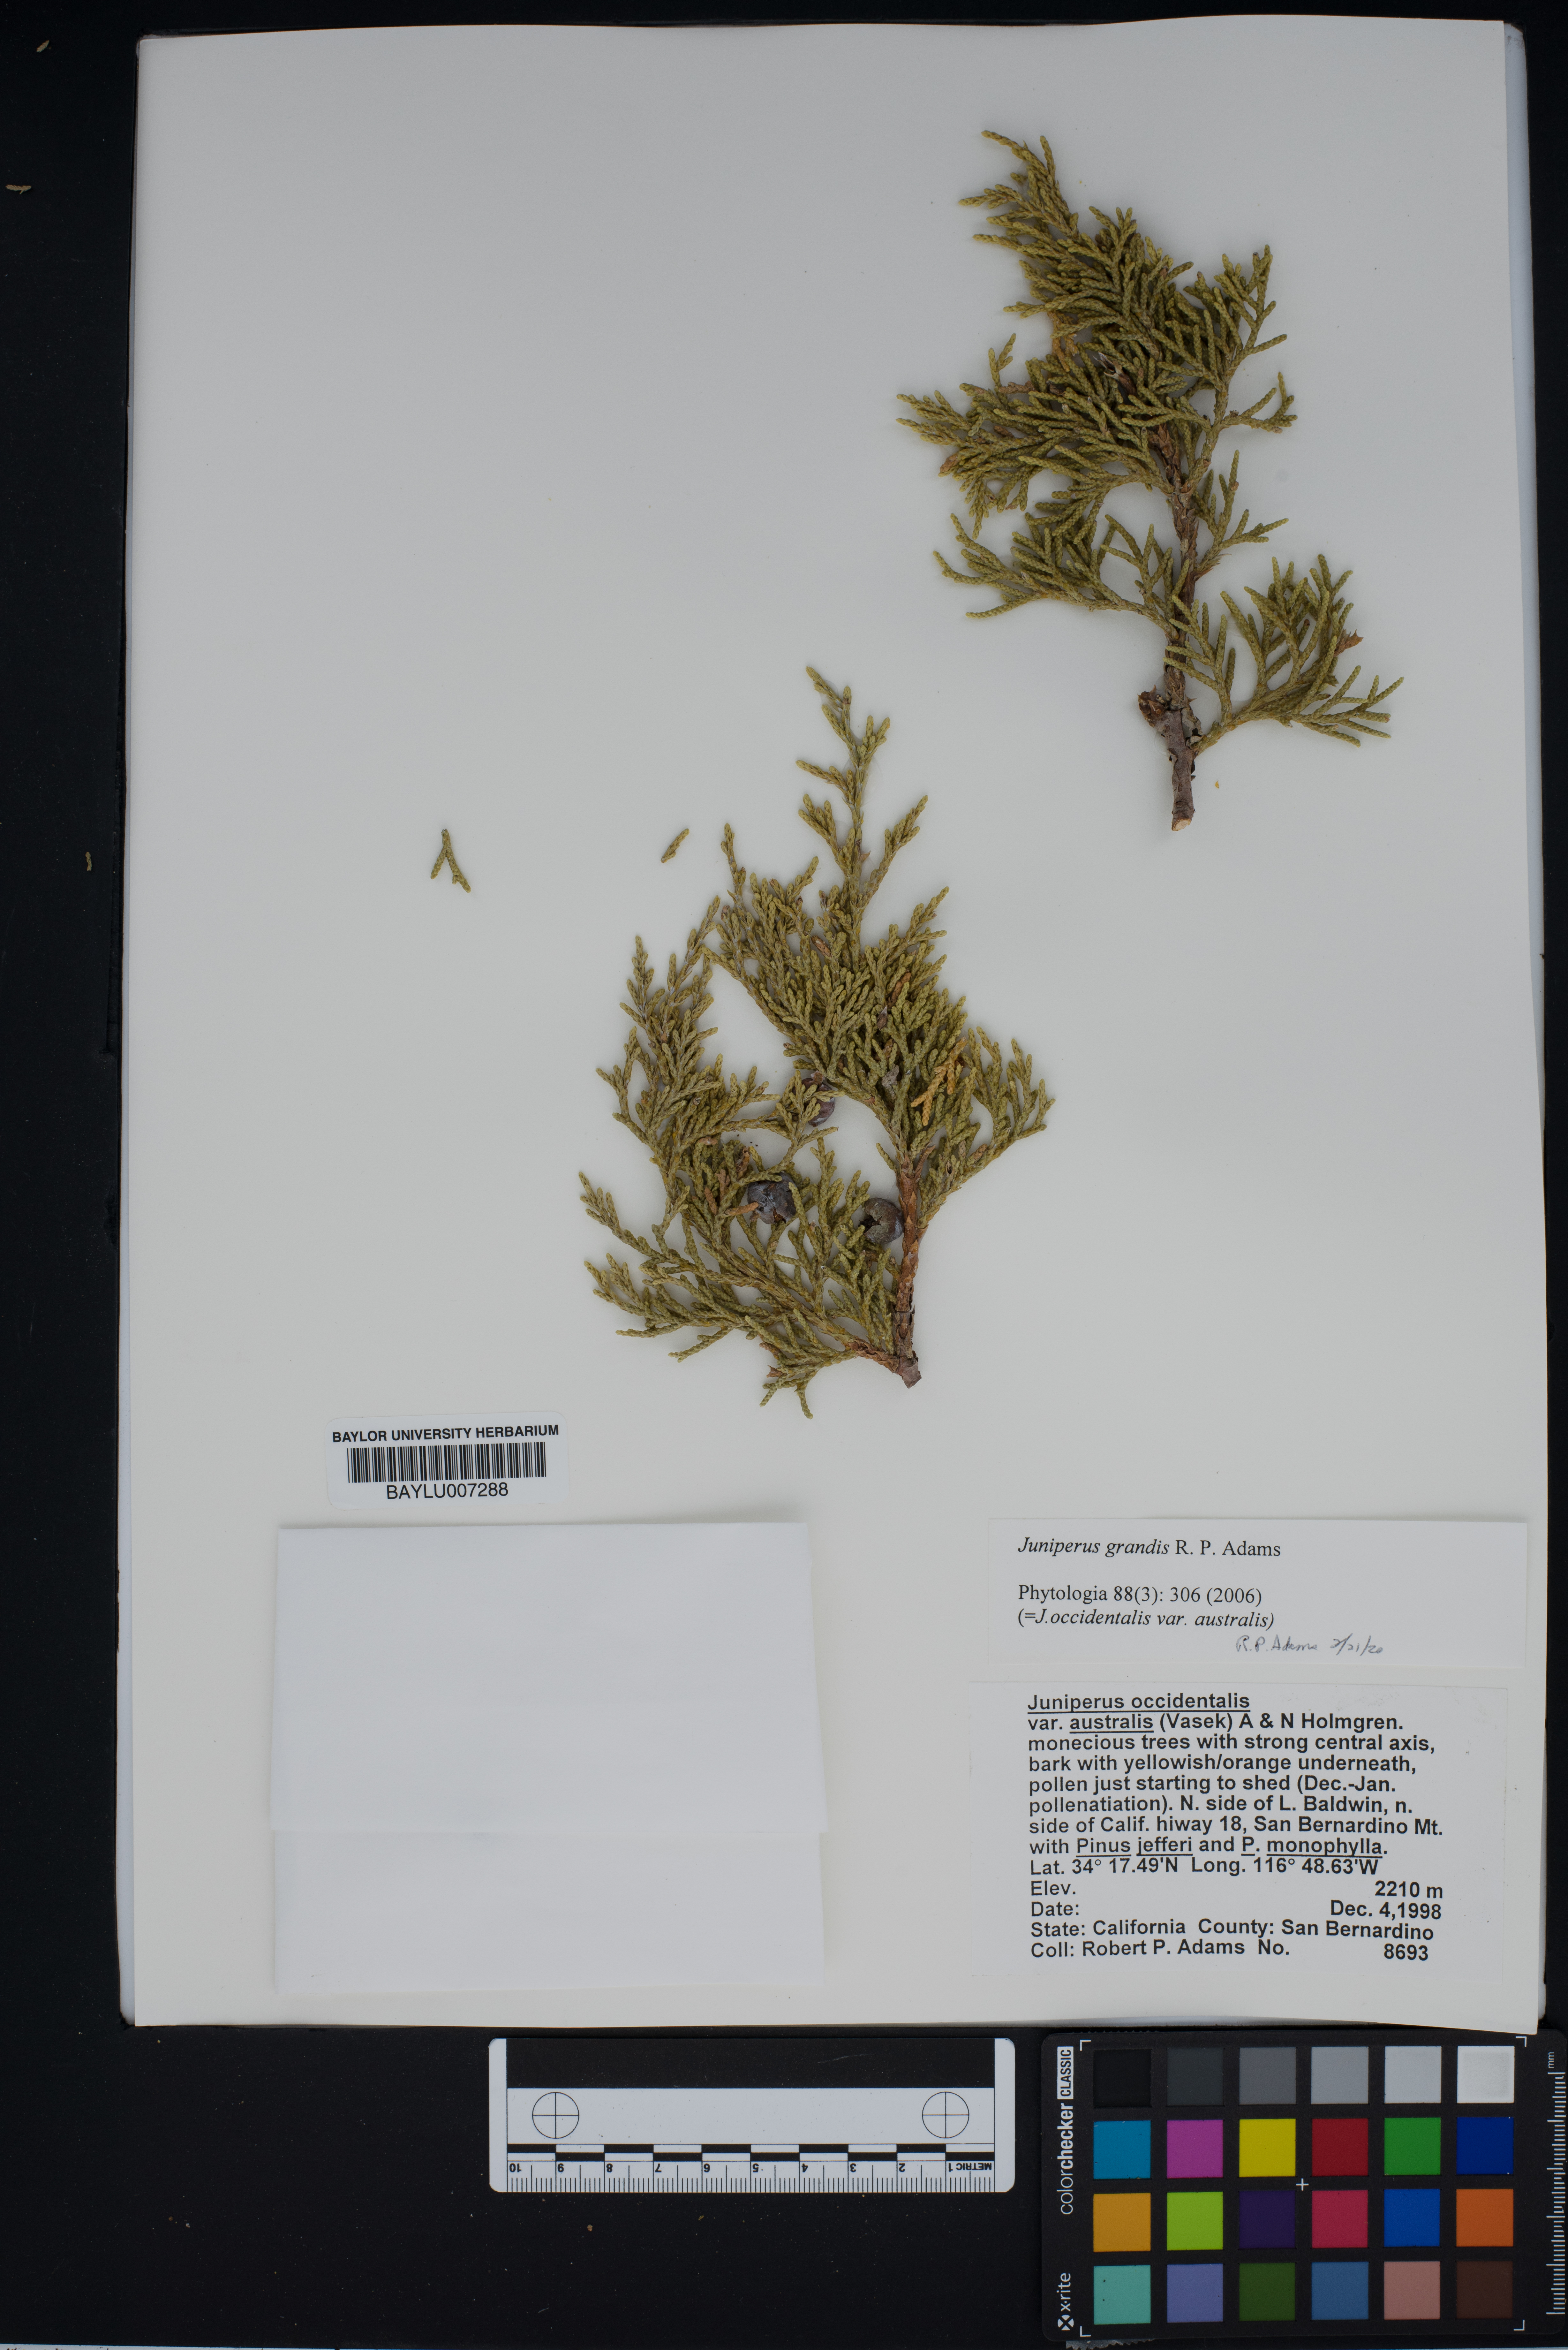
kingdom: Plantae
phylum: Tracheophyta
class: Pinopsida
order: Pinales
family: Cupressaceae
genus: Juniperus
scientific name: Juniperus occidentalis
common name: Western juniper
